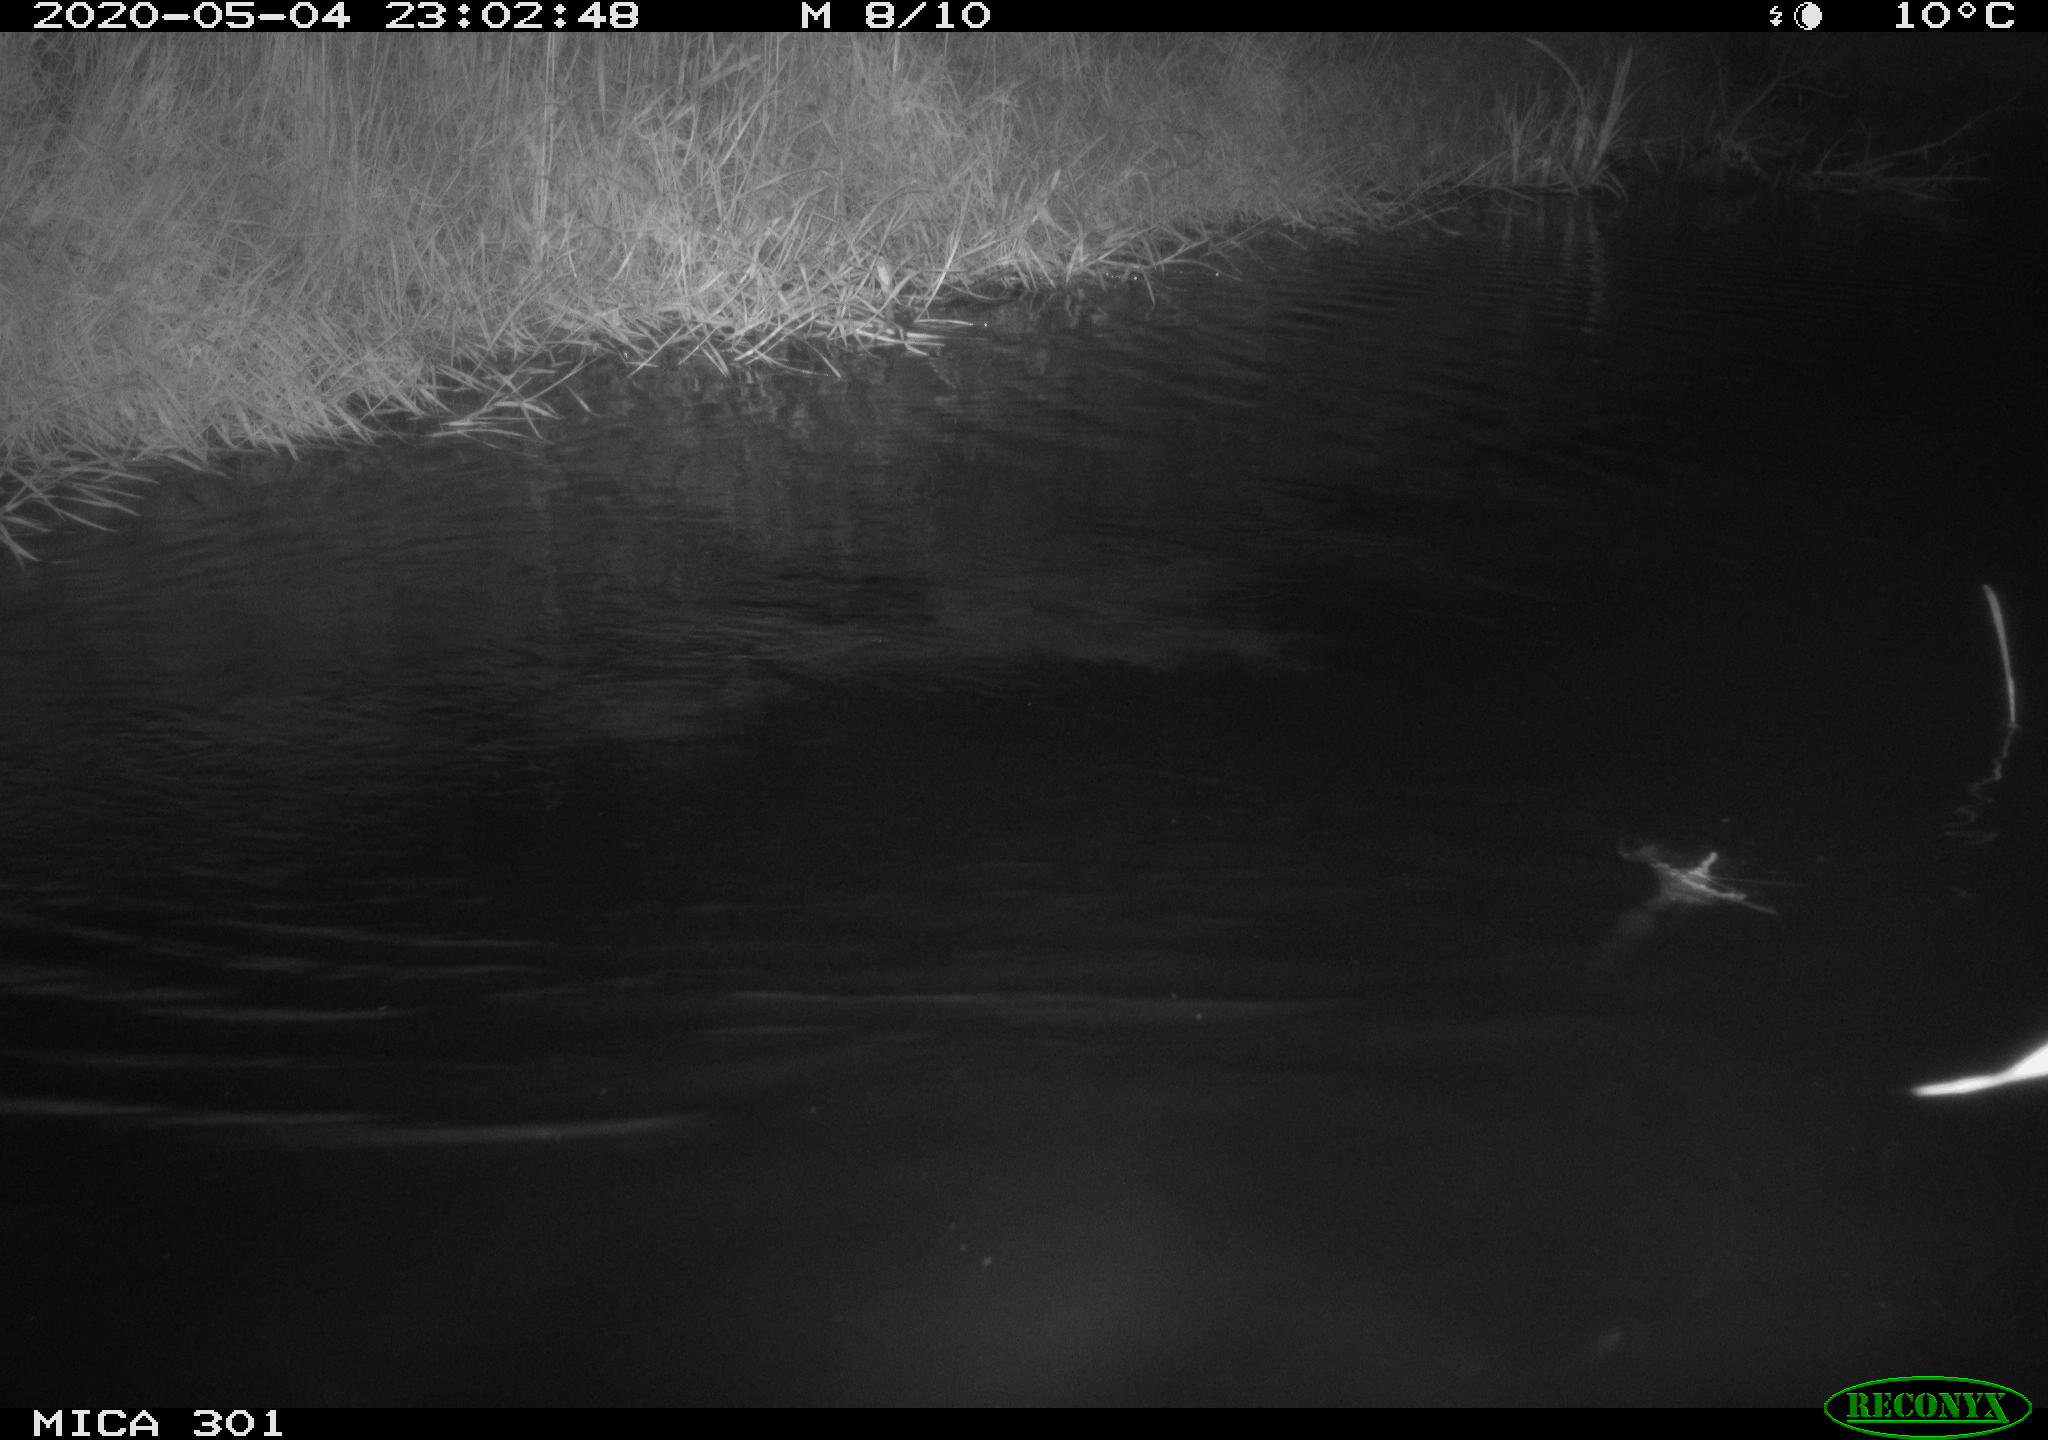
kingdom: Animalia
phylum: Chordata
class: Mammalia
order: Rodentia
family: Castoridae
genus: Castor
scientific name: Castor fiber
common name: Eurasian beaver
